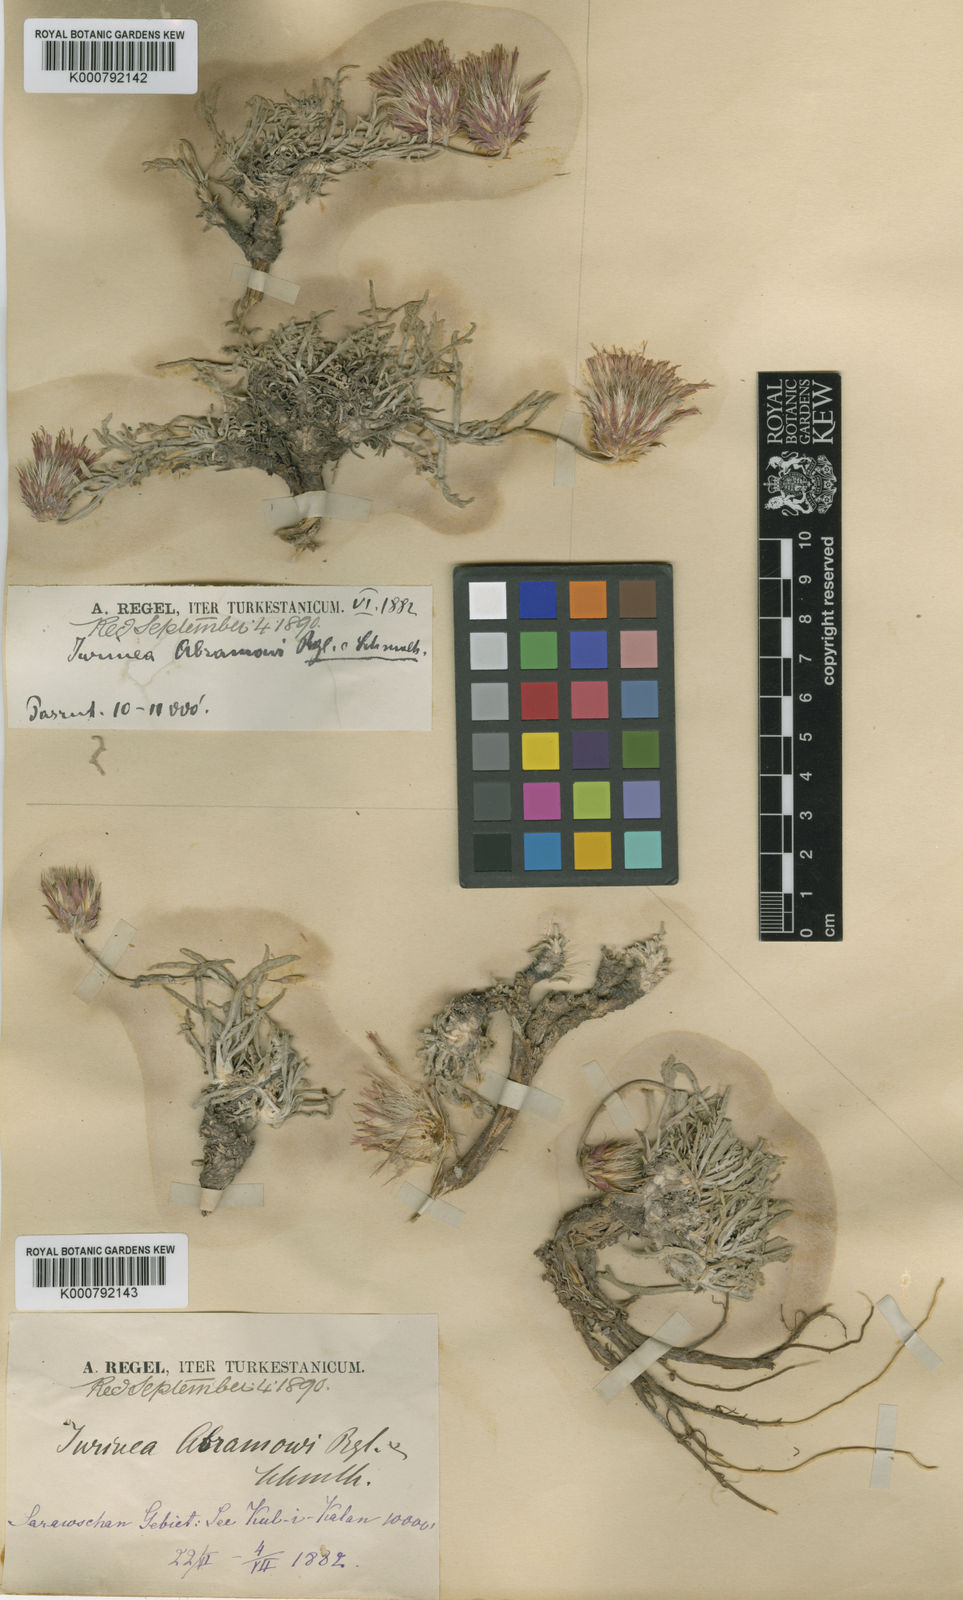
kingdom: Plantae
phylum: Tracheophyta
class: Magnoliopsida
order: Asterales
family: Asteraceae
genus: Jurinea
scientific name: Jurinea
